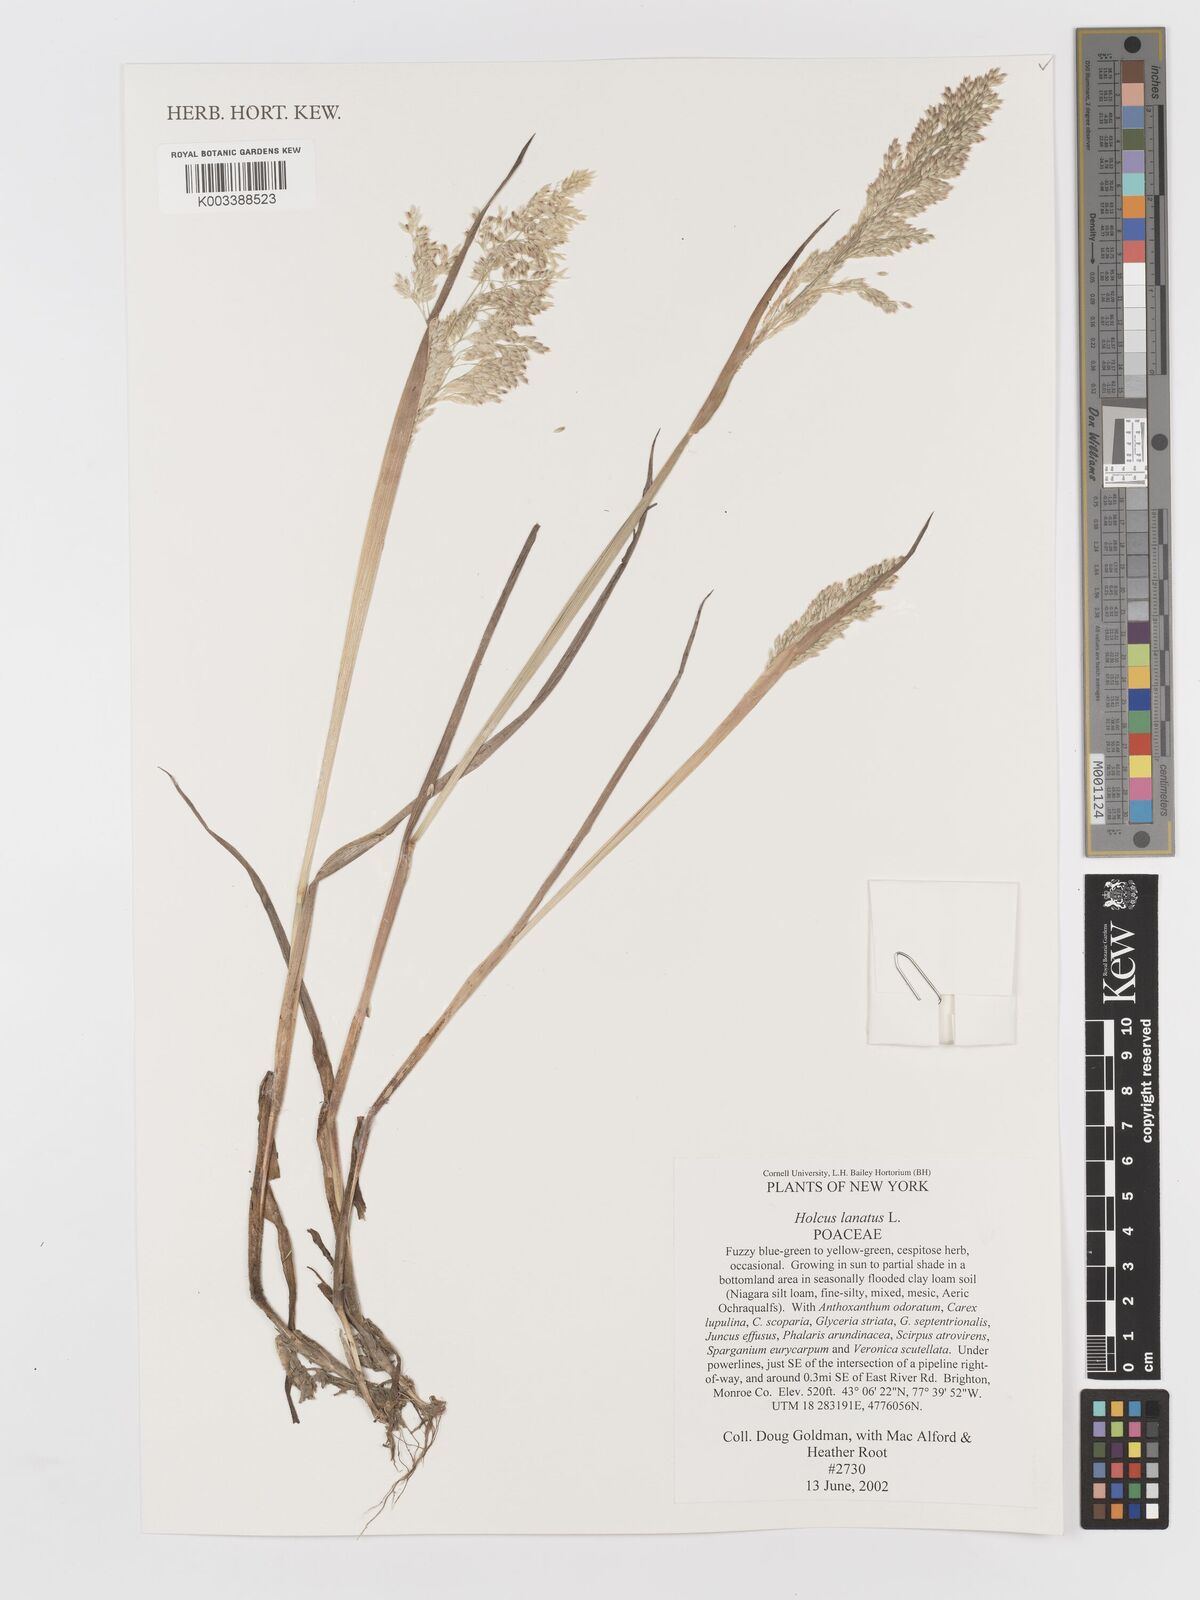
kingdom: Plantae
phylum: Tracheophyta
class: Liliopsida
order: Poales
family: Poaceae
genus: Holcus
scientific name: Holcus lanatus
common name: Yorkshire-fog
